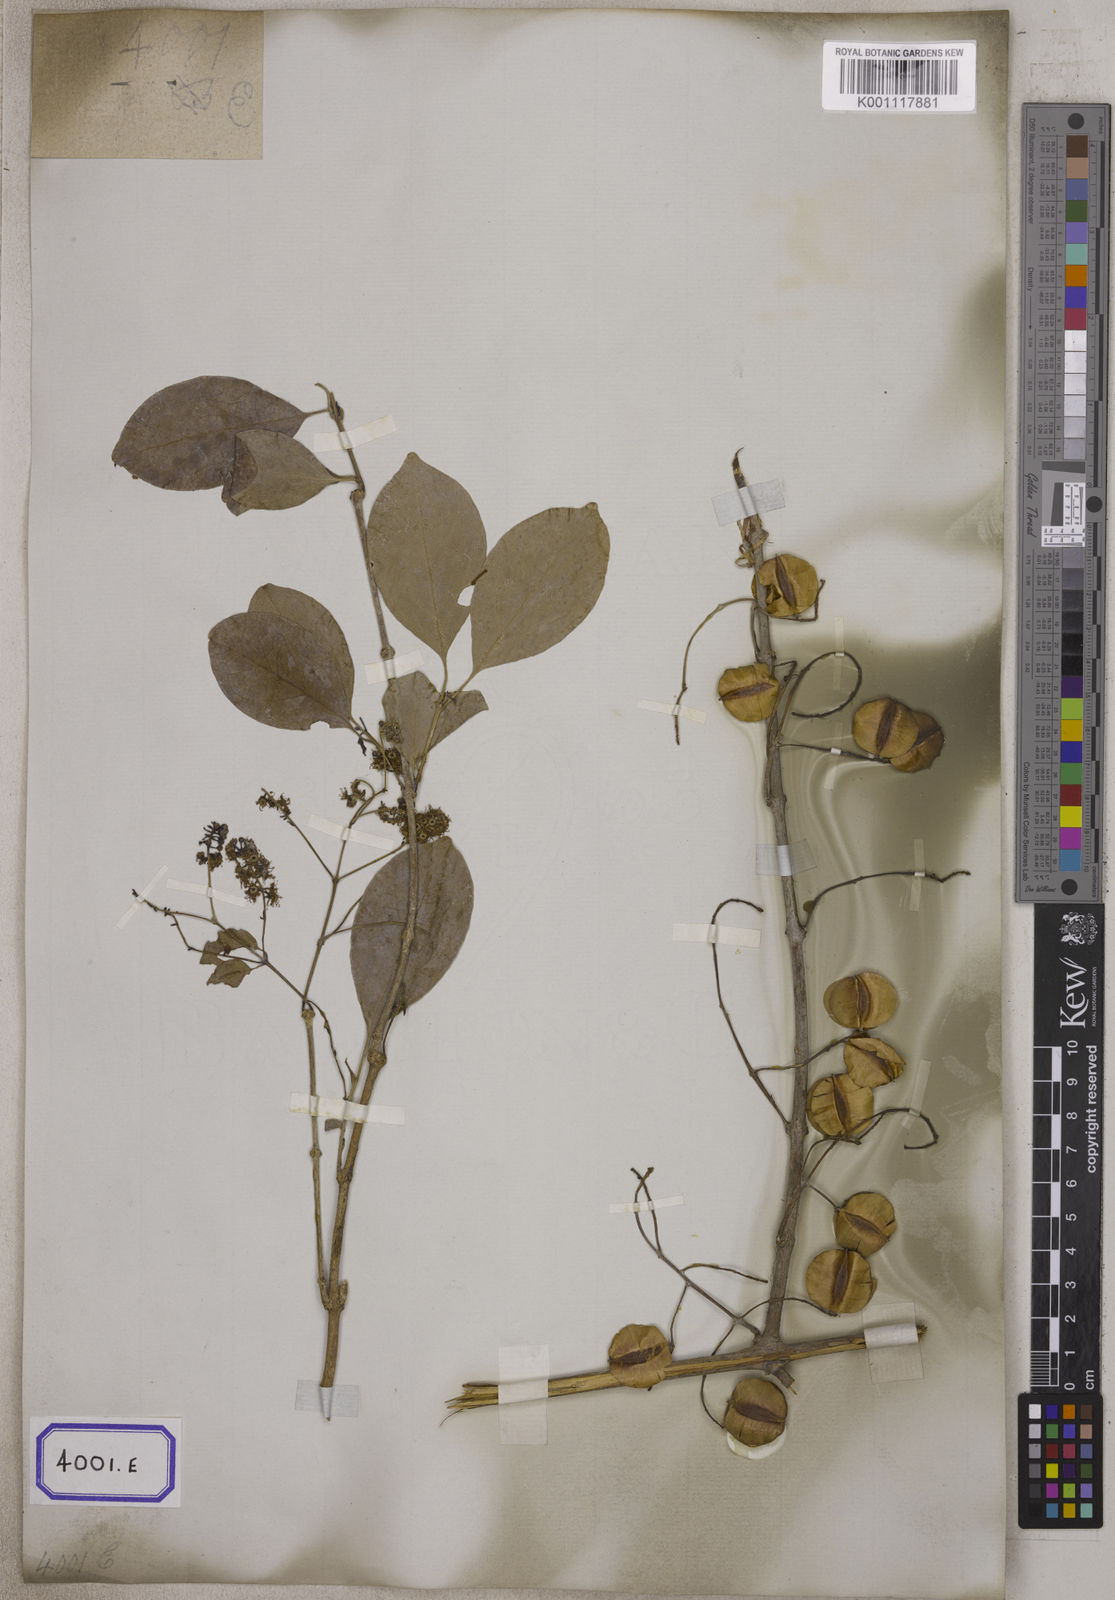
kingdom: Plantae
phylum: Tracheophyta
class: Magnoliopsida
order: Myrtales
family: Combretaceae
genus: Combretum
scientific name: Combretum albidum
